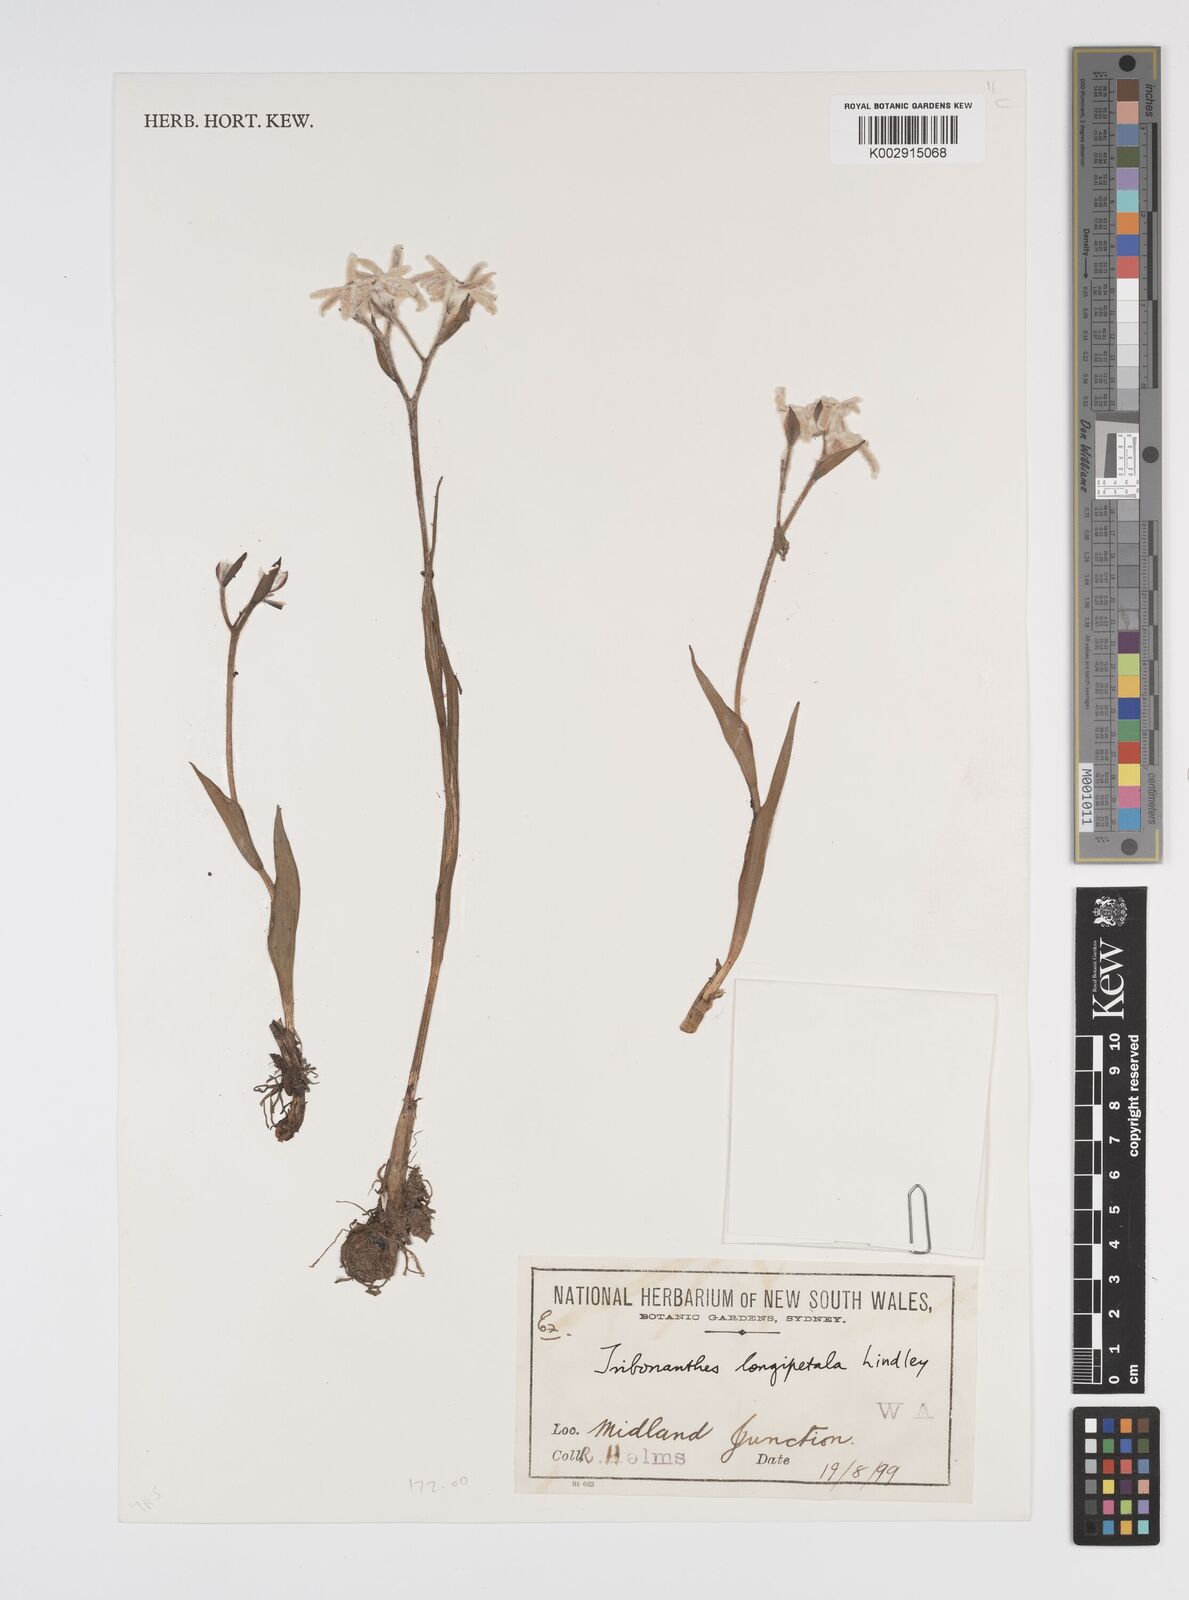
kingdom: Plantae
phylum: Tracheophyta
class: Liliopsida
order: Commelinales
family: Haemodoraceae
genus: Tribonanthes
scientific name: Tribonanthes longipetala
